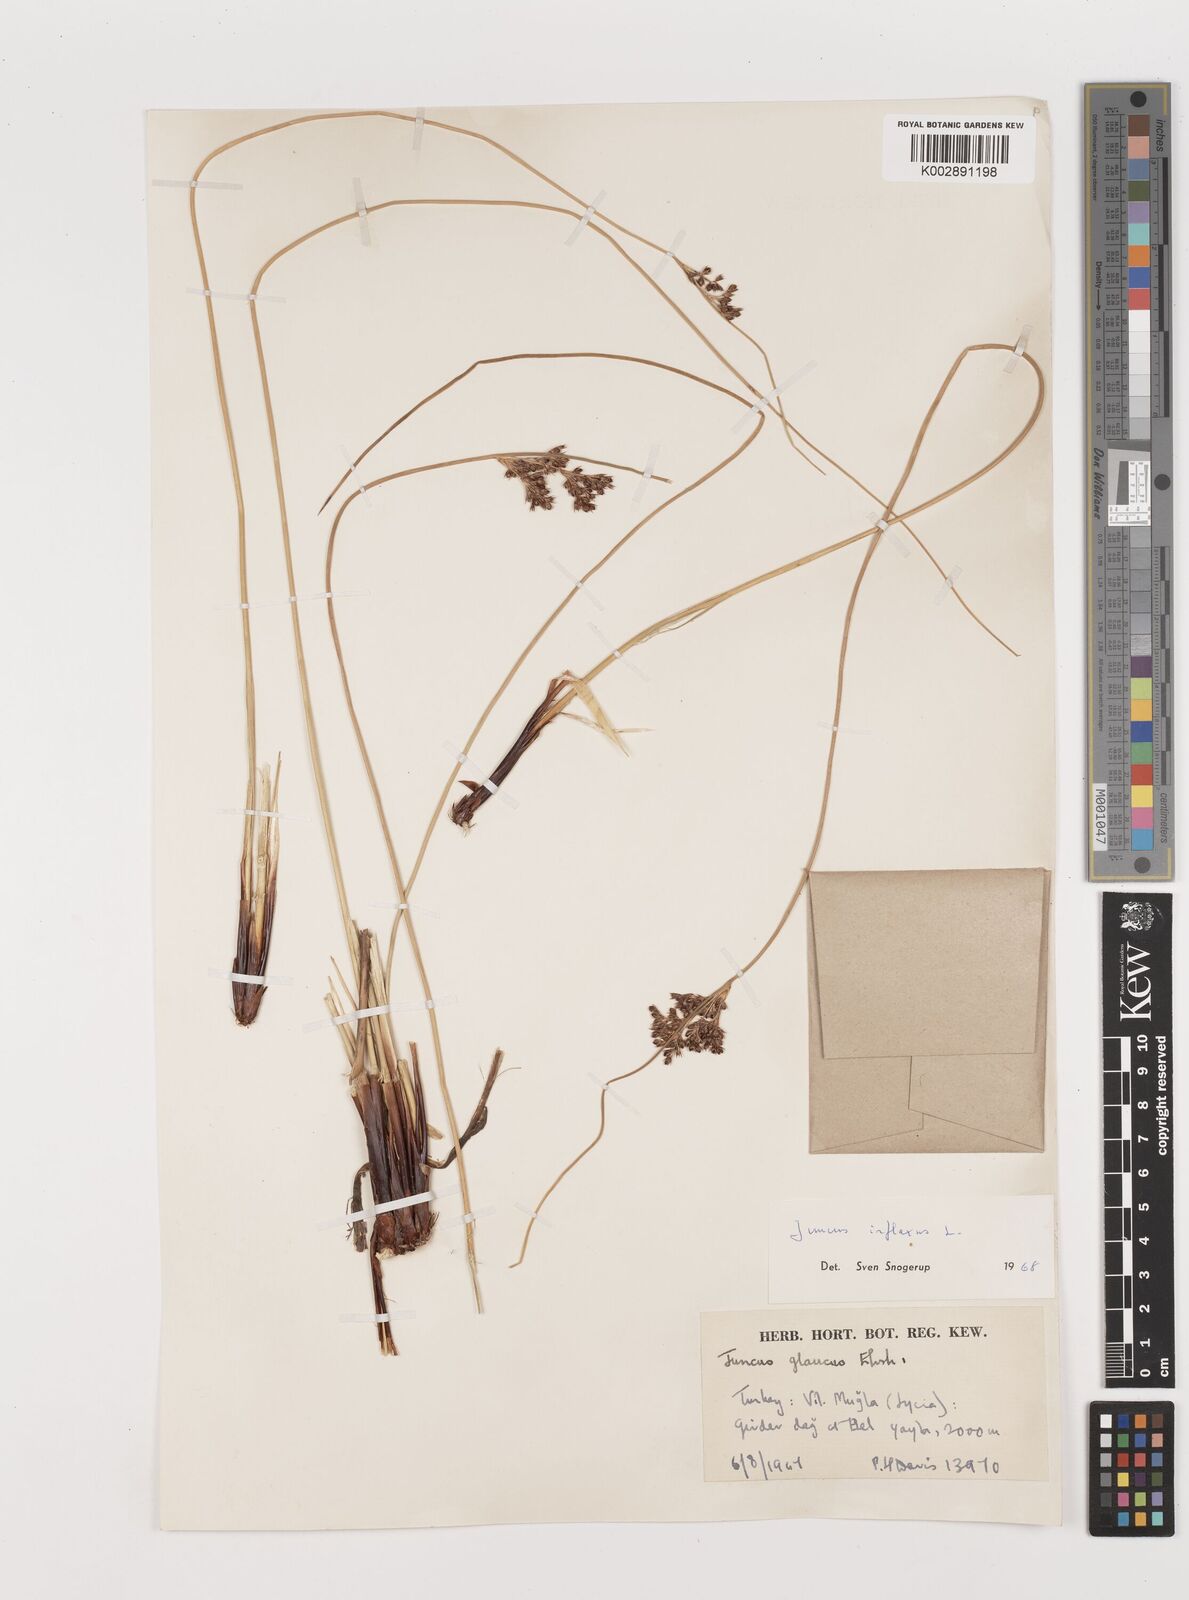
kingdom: Plantae
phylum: Tracheophyta
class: Liliopsida
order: Poales
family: Juncaceae
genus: Juncus
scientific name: Juncus inflexus
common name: Hard rush
